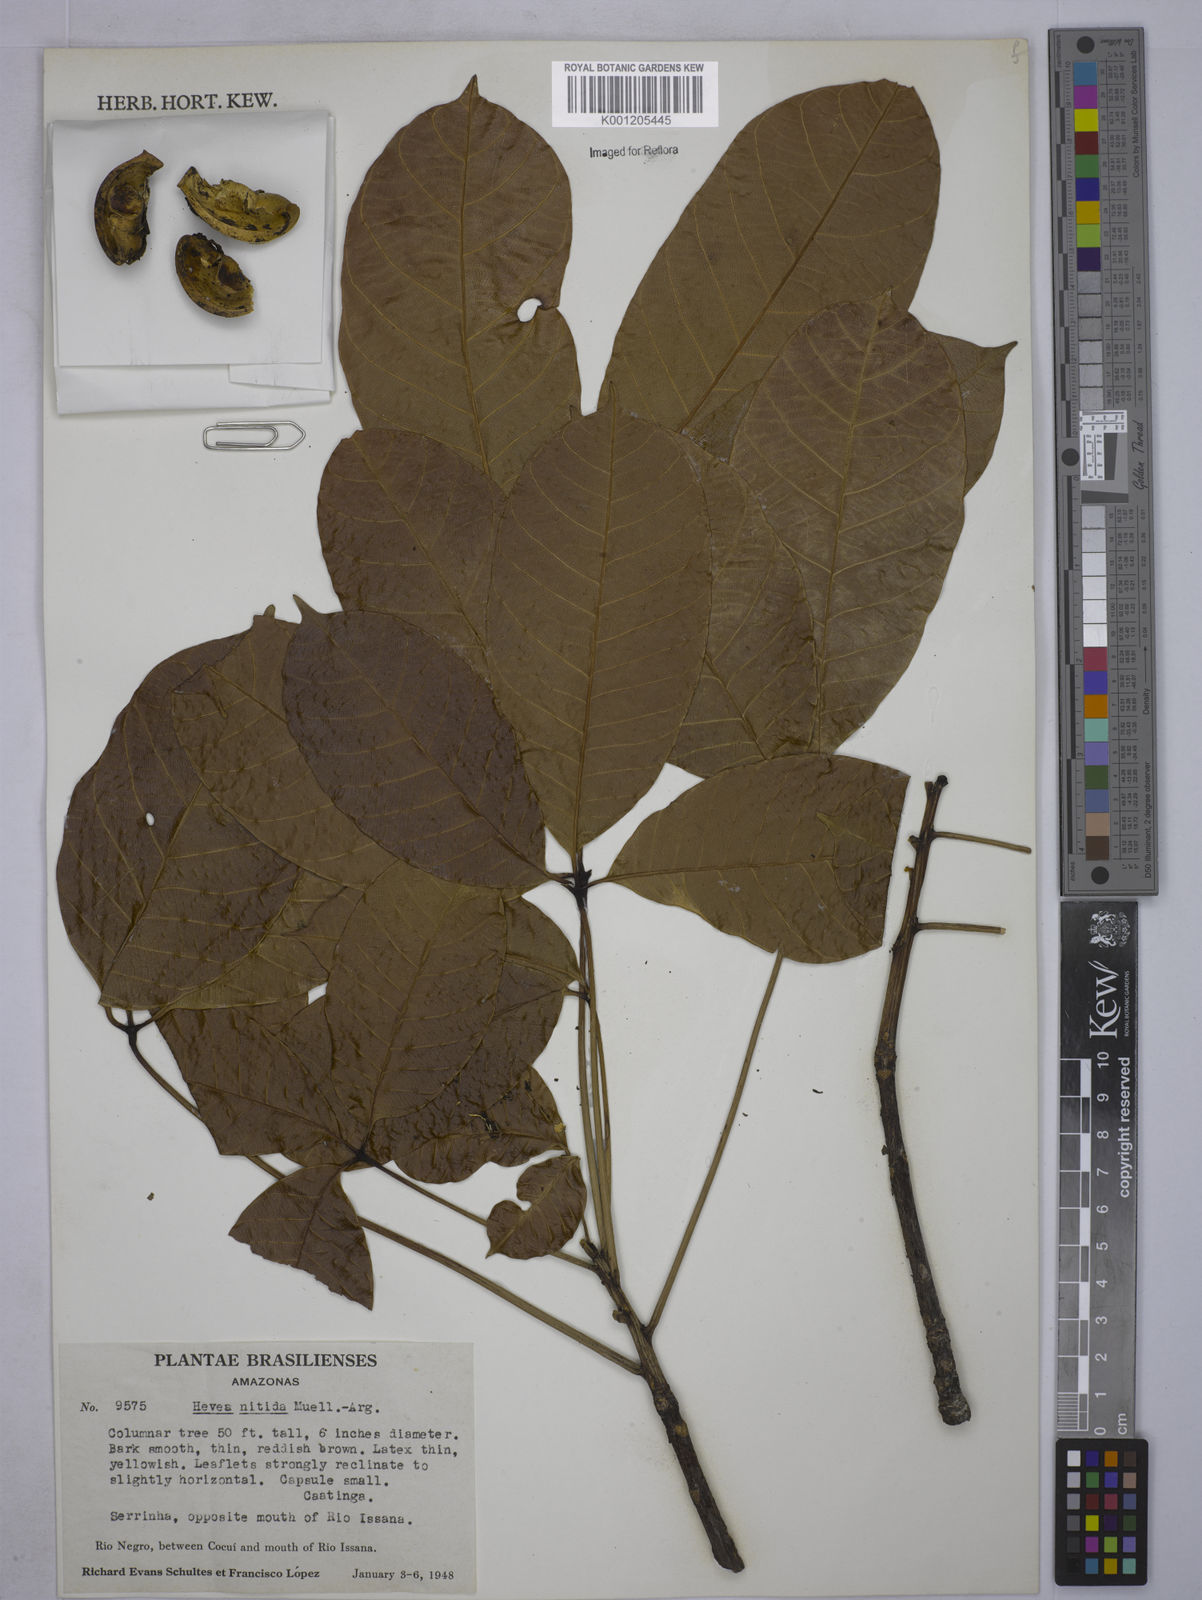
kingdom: Plantae
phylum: Tracheophyta
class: Magnoliopsida
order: Malpighiales
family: Euphorbiaceae
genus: Hevea
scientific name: Hevea
